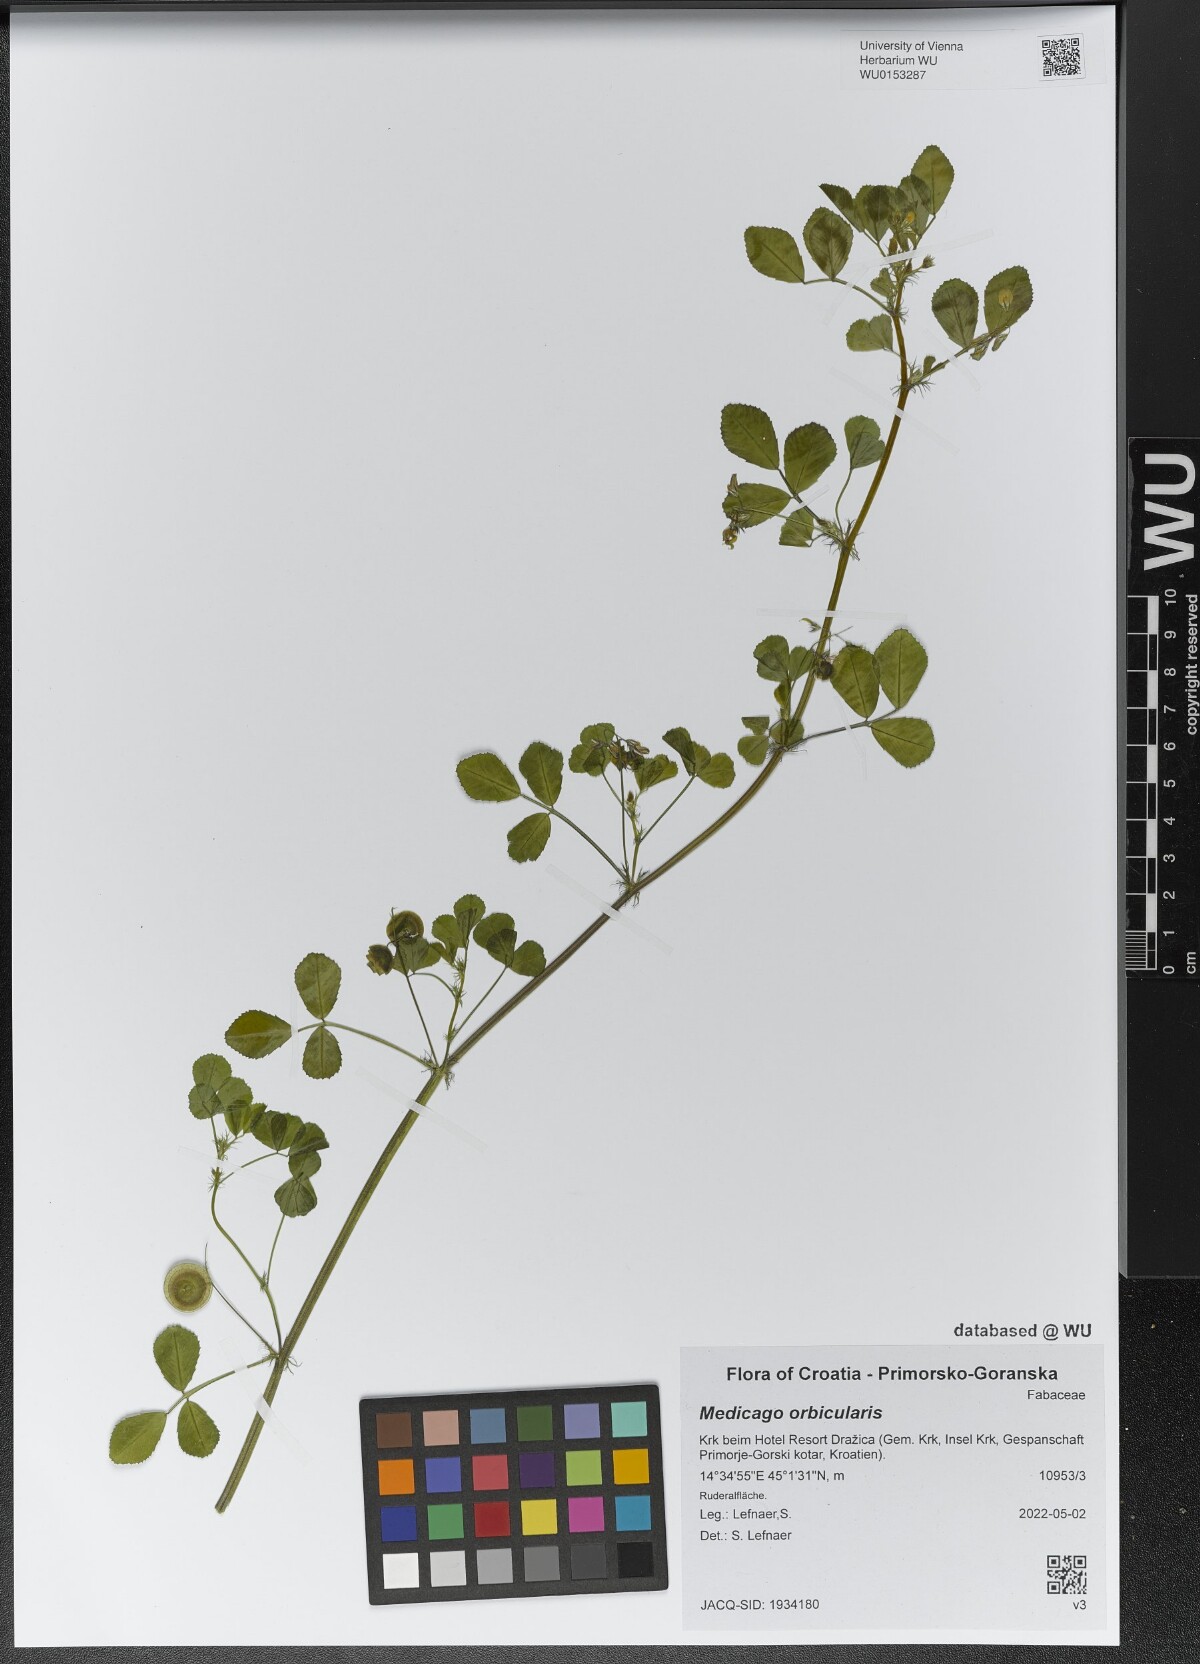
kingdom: Plantae
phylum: Tracheophyta
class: Magnoliopsida
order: Fabales
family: Fabaceae
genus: Medicago
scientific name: Medicago orbicularis
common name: Button medick
